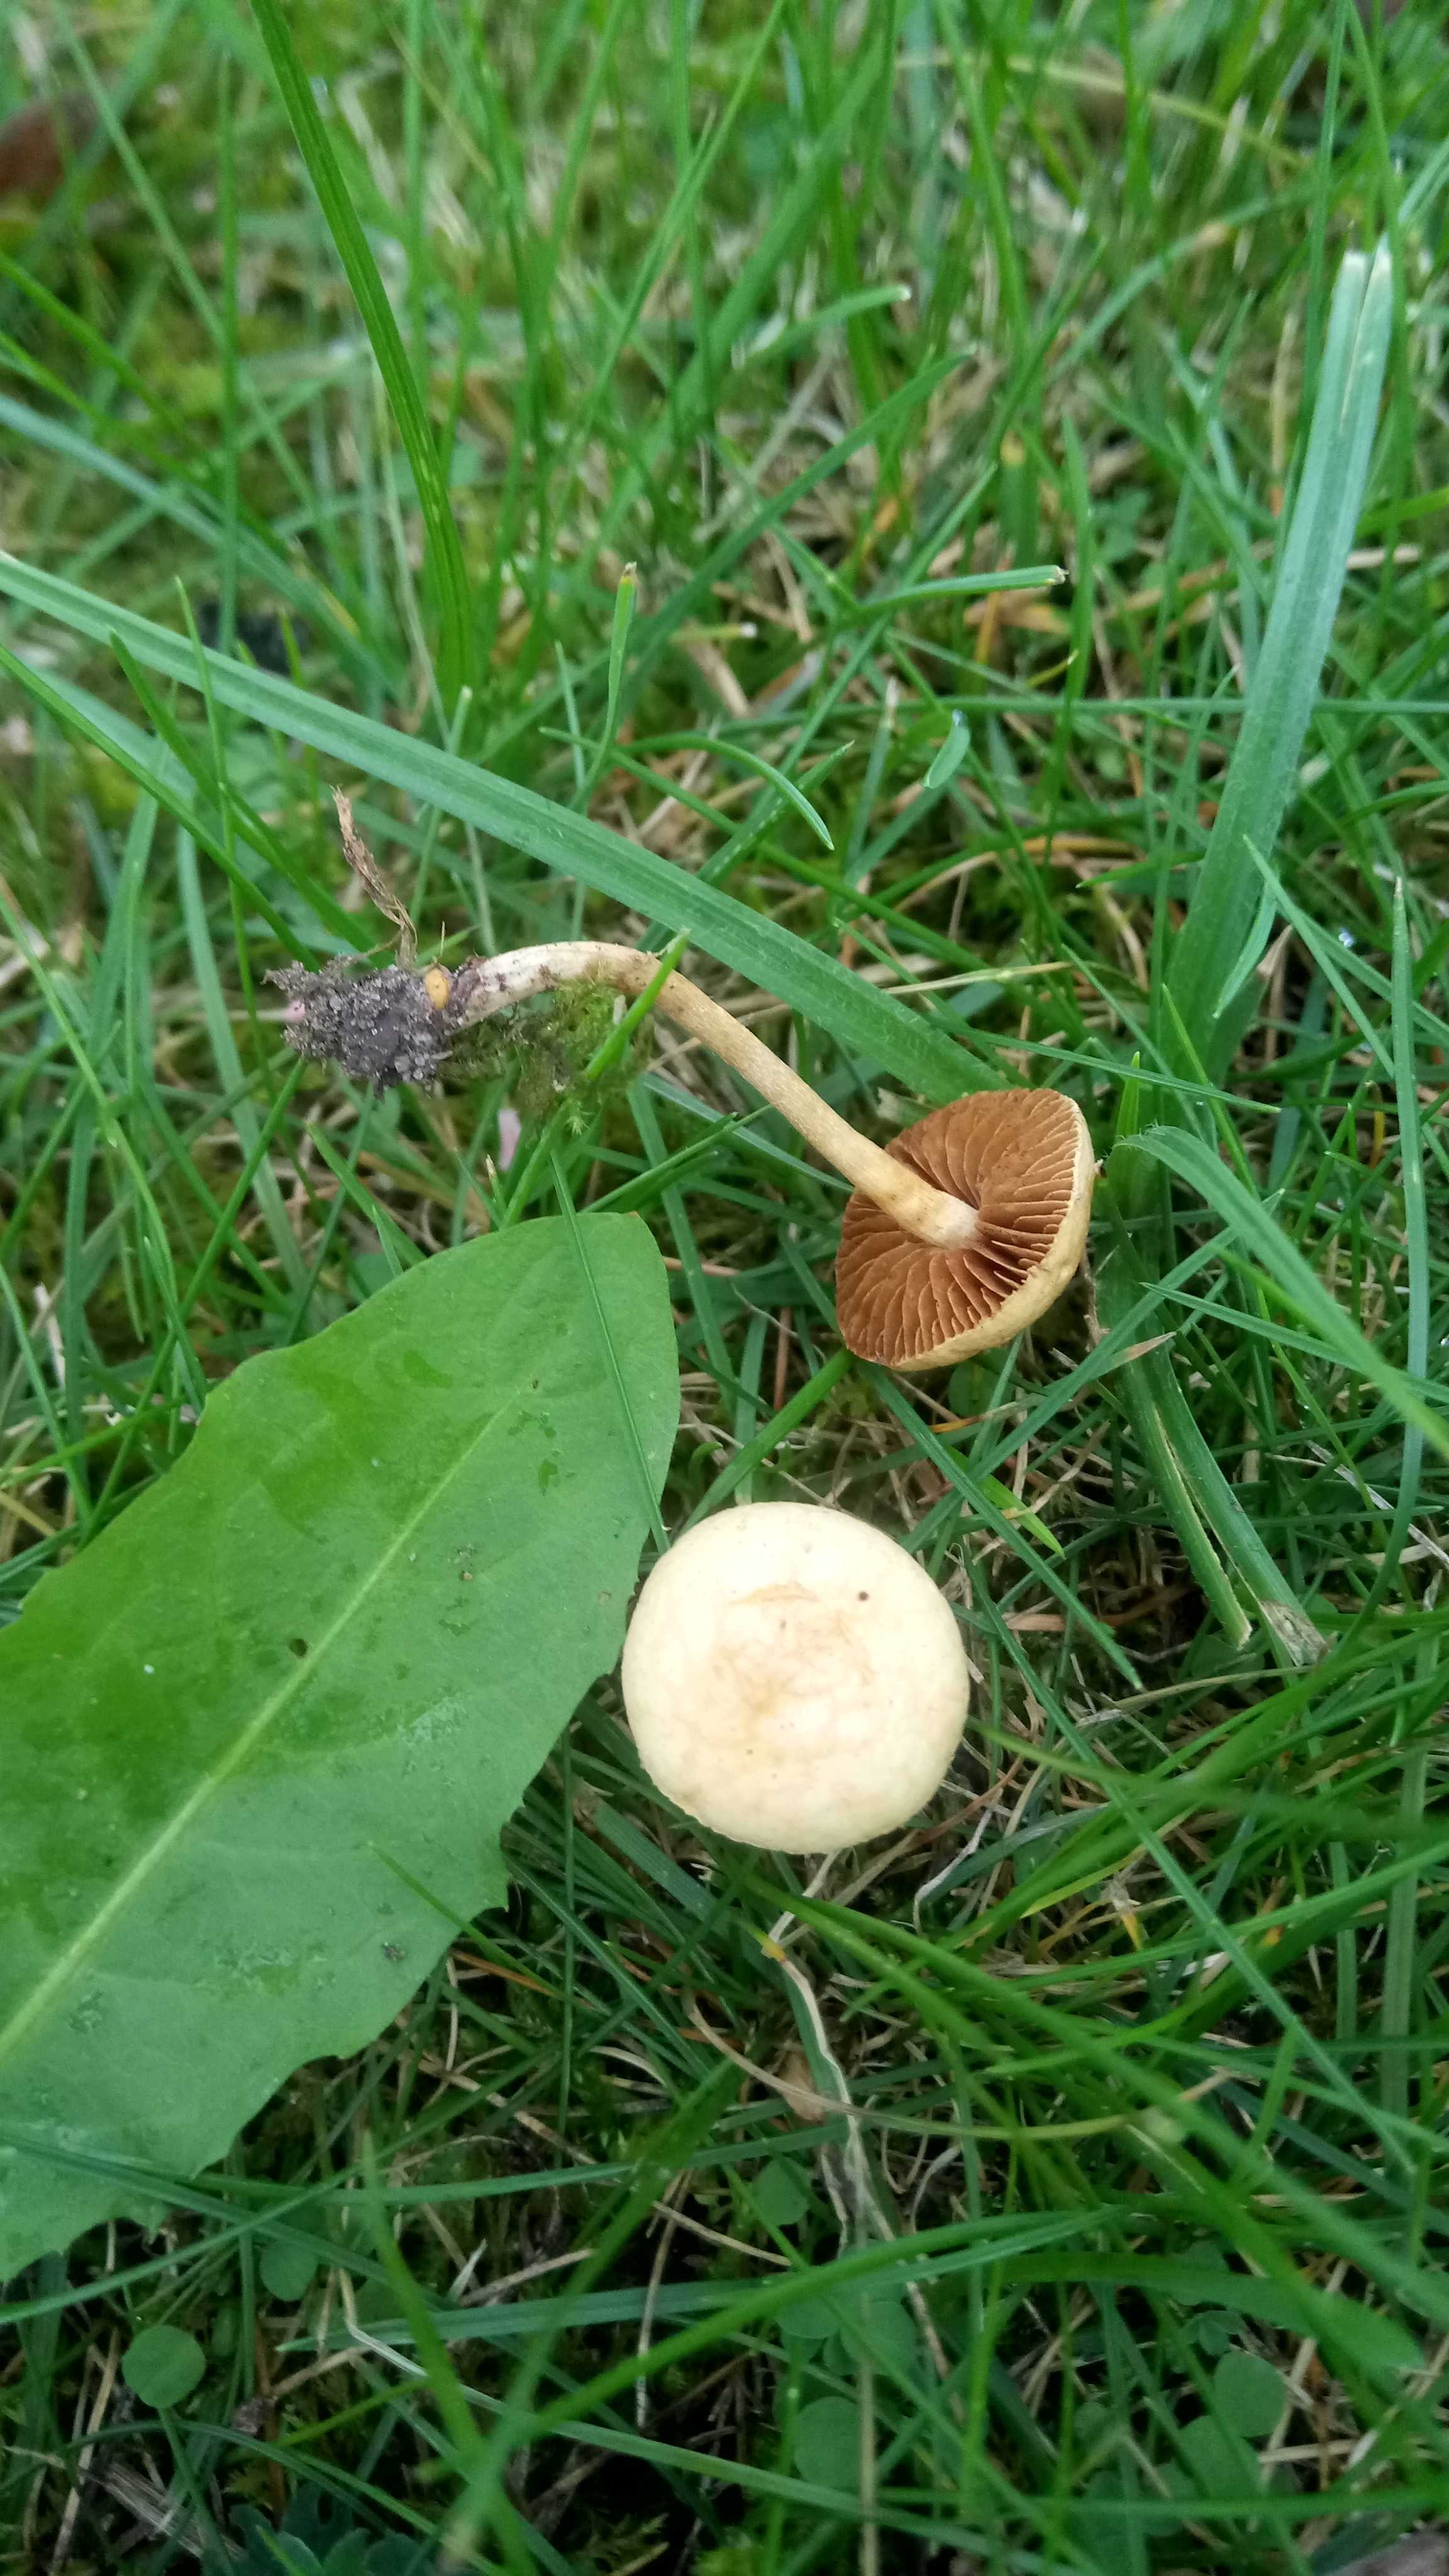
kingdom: Fungi
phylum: Basidiomycota
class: Agaricomycetes
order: Agaricales
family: Strophariaceae
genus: Agrocybe
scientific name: Agrocybe pediades
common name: almindelig agerhat
